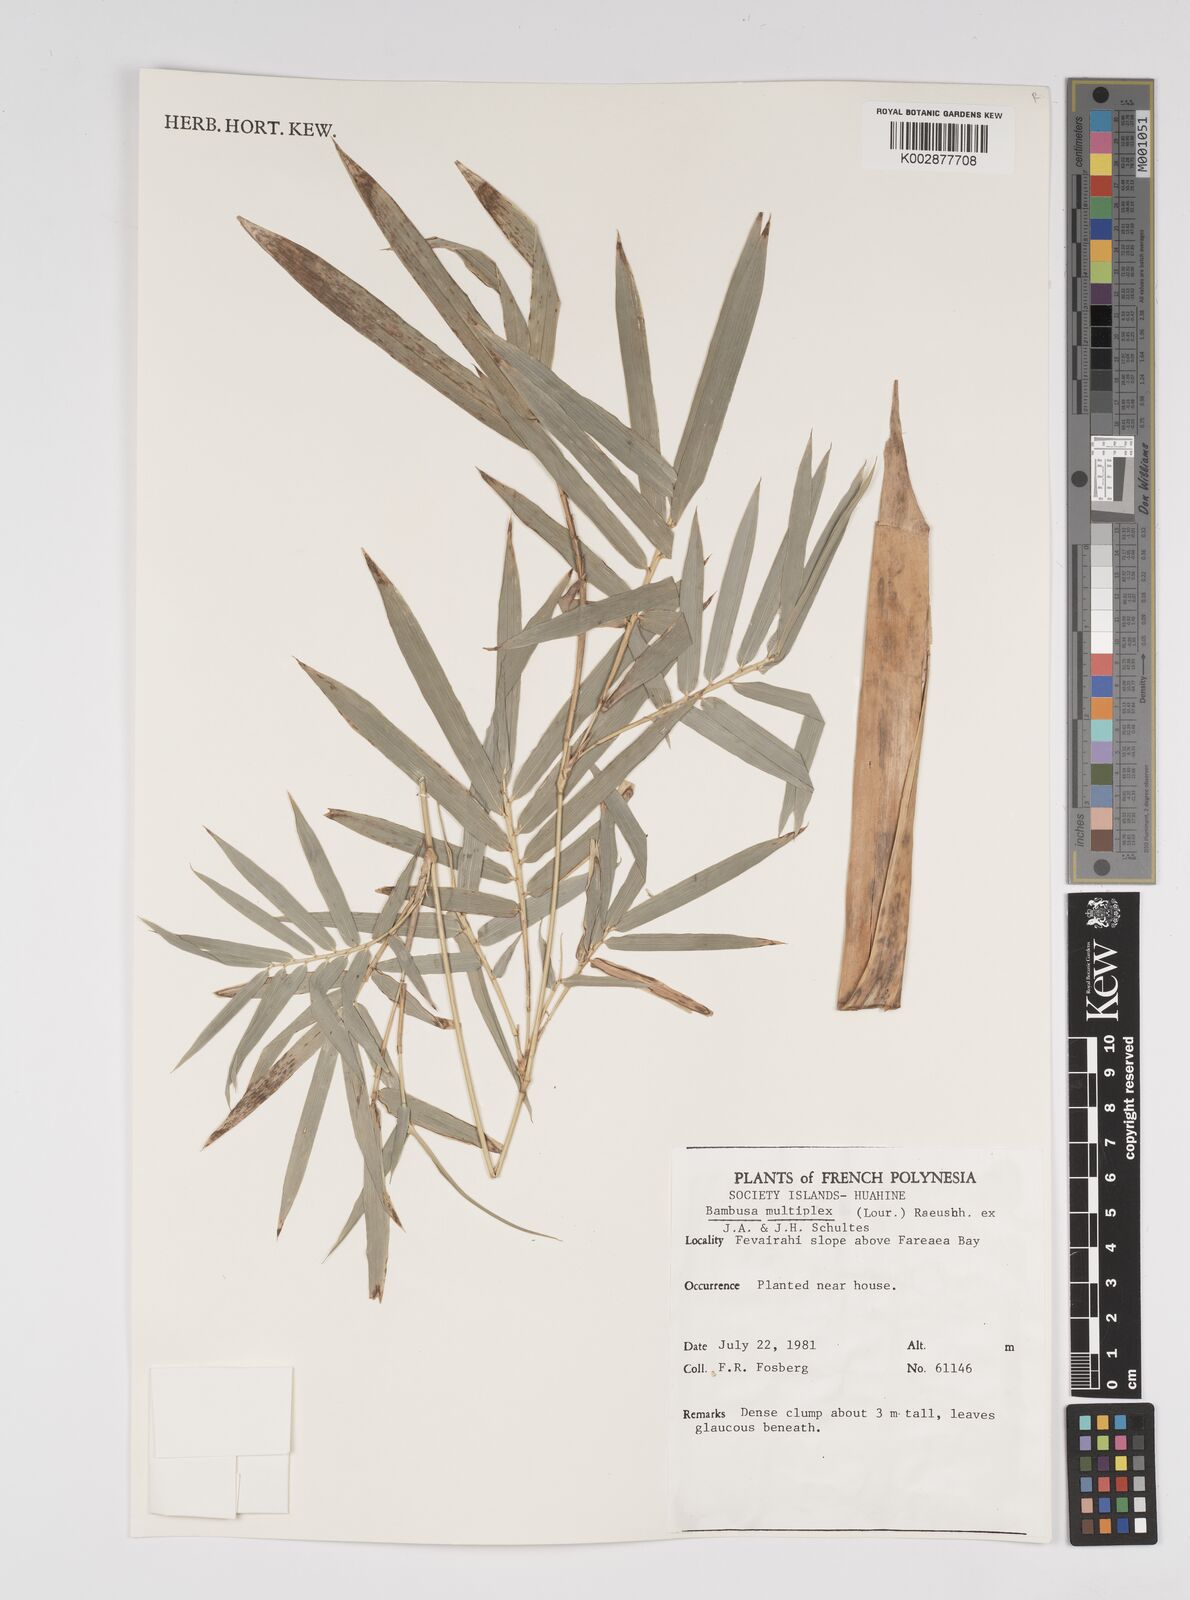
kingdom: Plantae
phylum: Tracheophyta
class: Liliopsida
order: Poales
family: Poaceae
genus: Bambusa
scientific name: Bambusa multiplex
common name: Hedge bamboo
